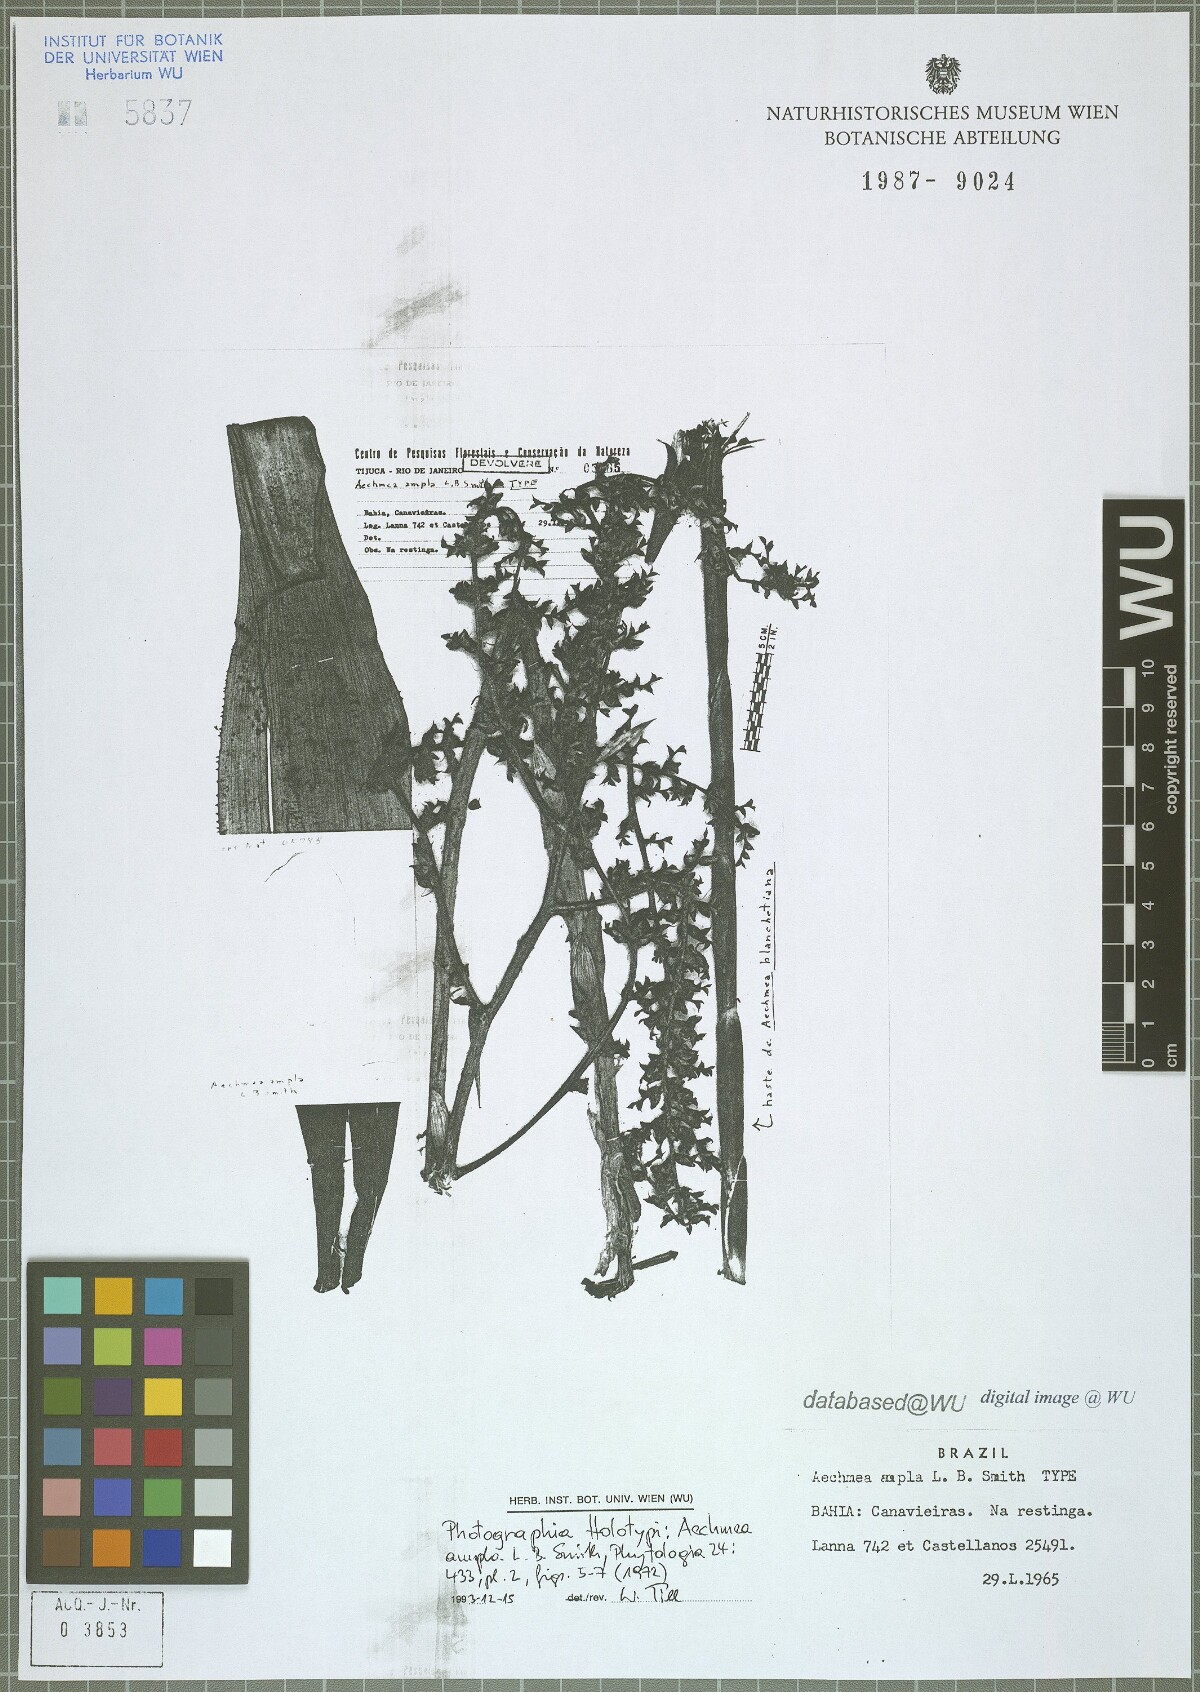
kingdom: Plantae
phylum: Tracheophyta
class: Liliopsida
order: Poales
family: Bromeliaceae
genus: Aechmea
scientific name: Aechmea ampla
